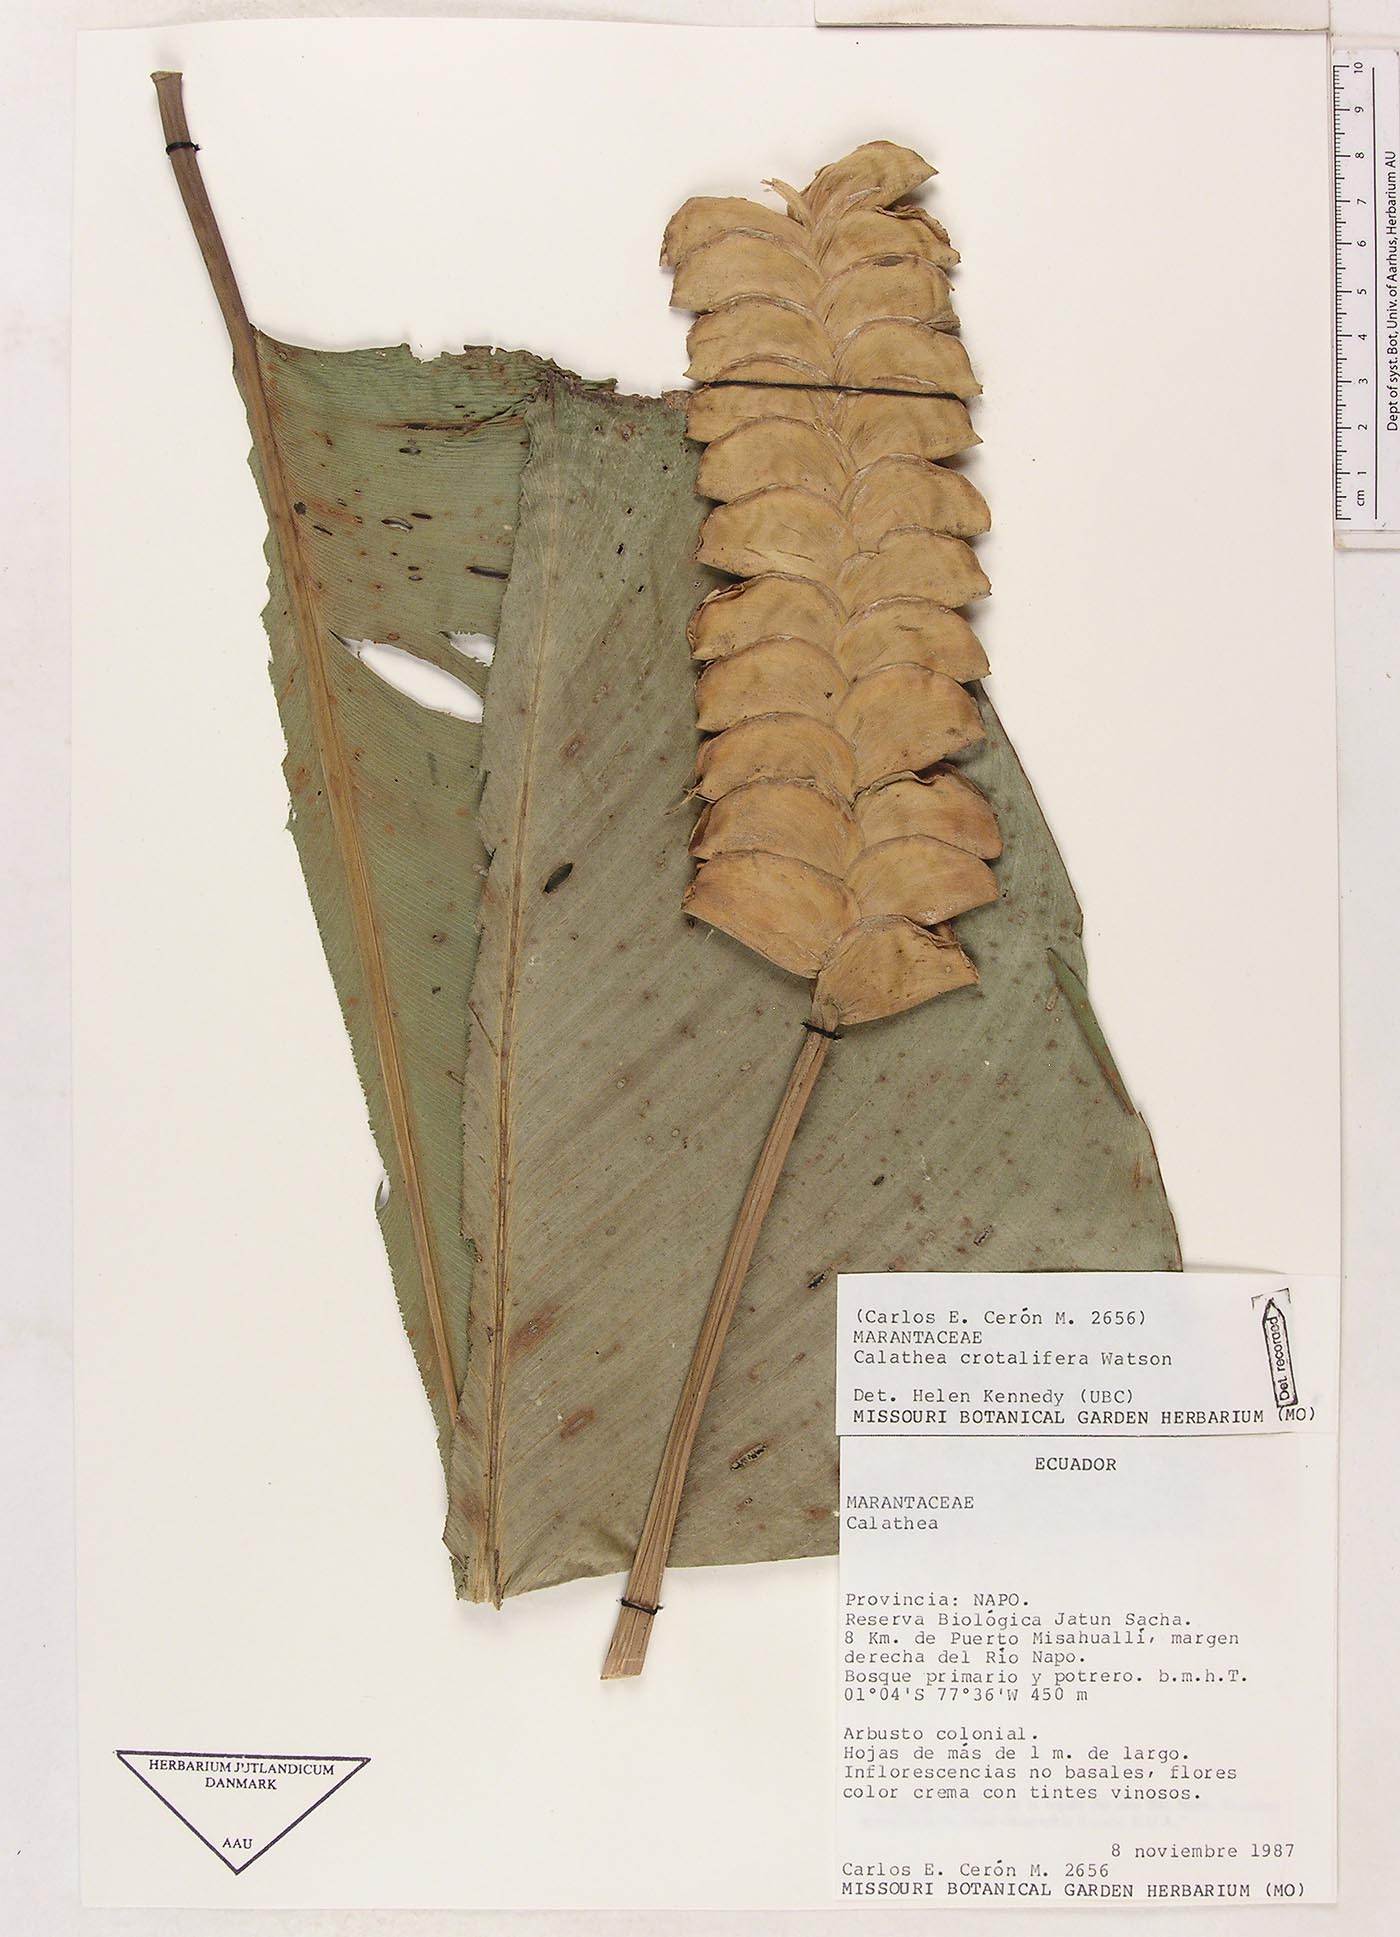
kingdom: Plantae
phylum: Tracheophyta
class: Liliopsida
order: Zingiberales
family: Marantaceae
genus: Calathea
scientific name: Calathea crotalifera
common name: Rattlesnake plant
